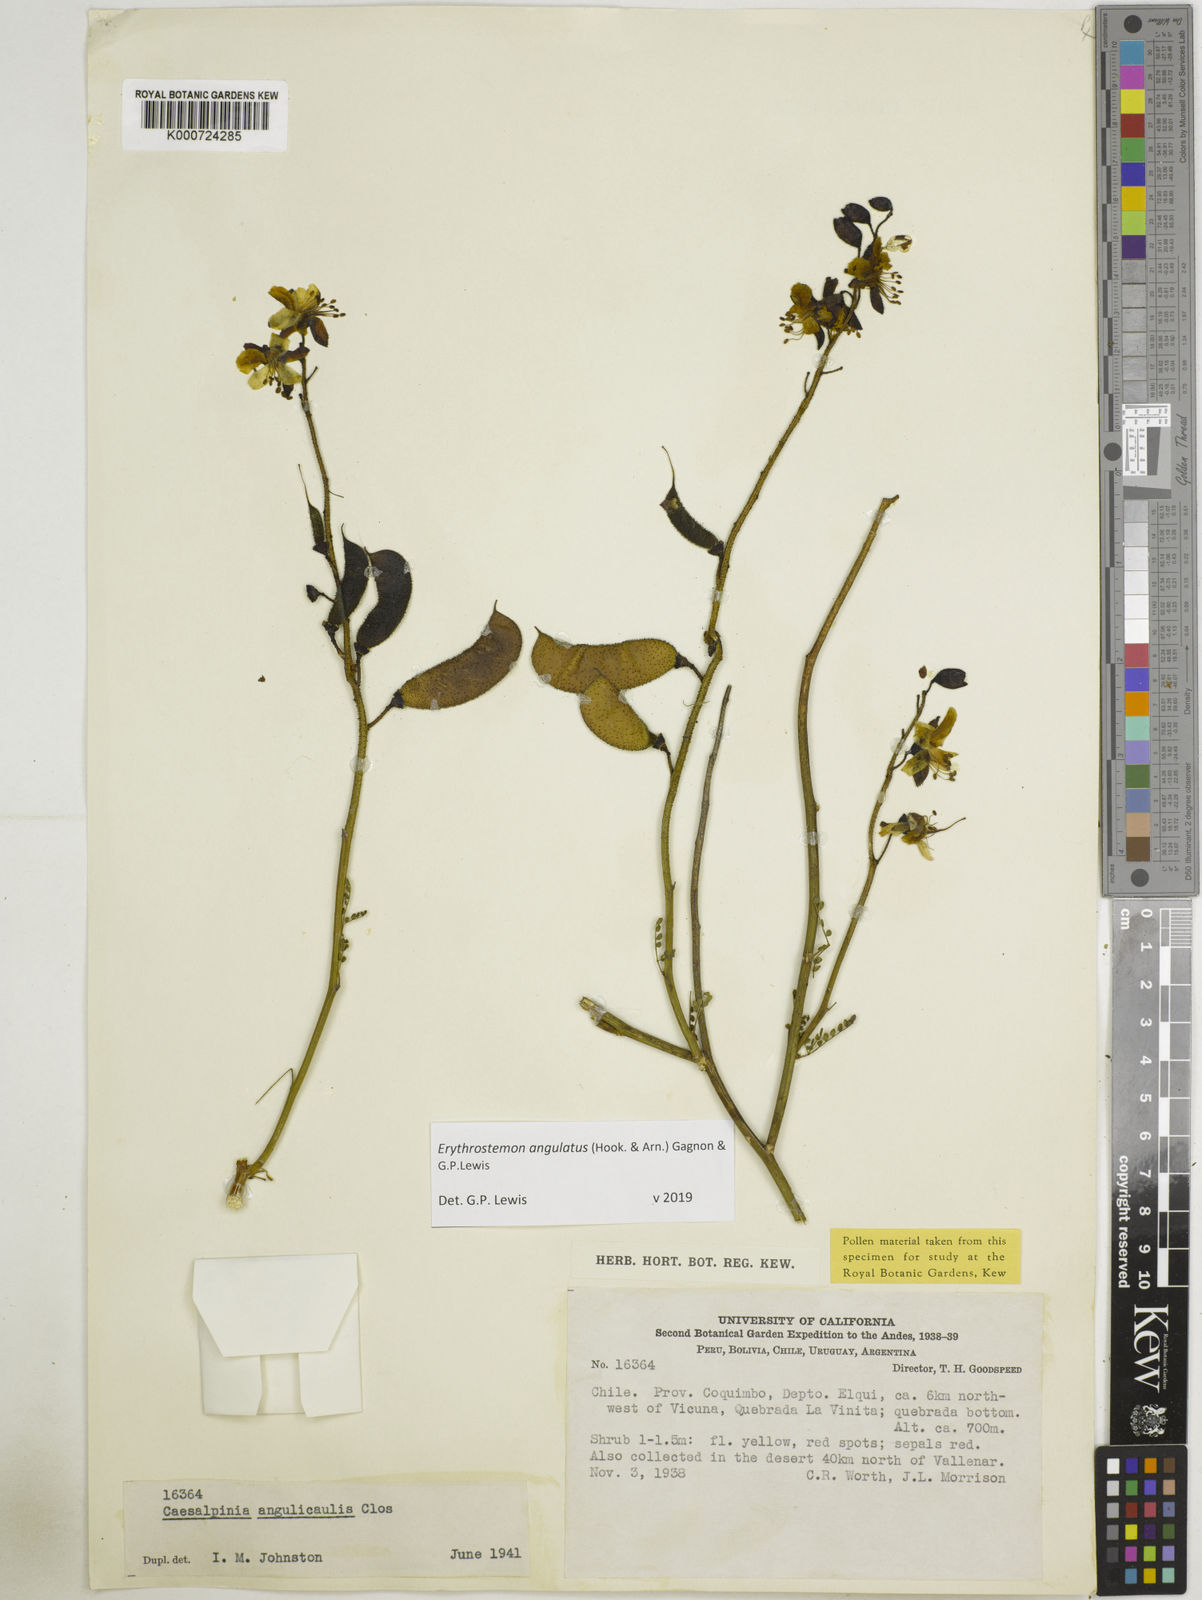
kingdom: Plantae
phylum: Tracheophyta
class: Magnoliopsida
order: Fabales
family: Fabaceae
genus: Caesalpinia
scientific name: Caesalpinia
